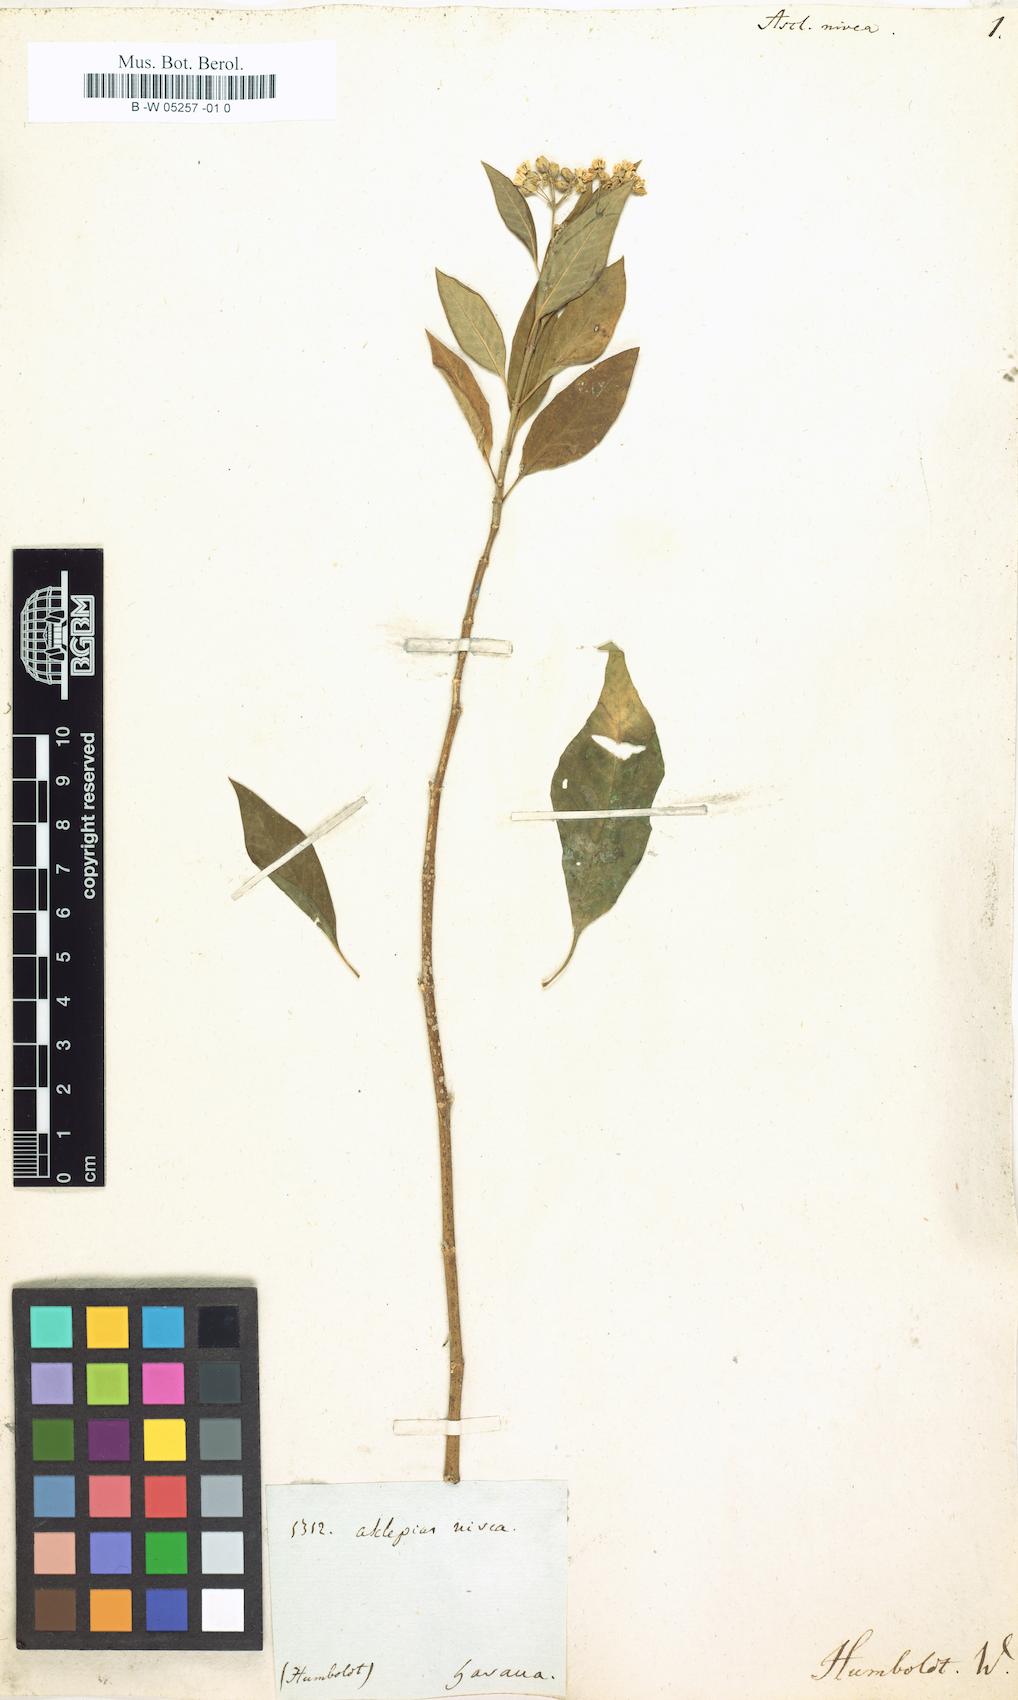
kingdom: Plantae
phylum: Tracheophyta
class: Magnoliopsida
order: Gentianales
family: Apocynaceae
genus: Asclepias
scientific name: Asclepias nivea
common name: Ipecacuanha
